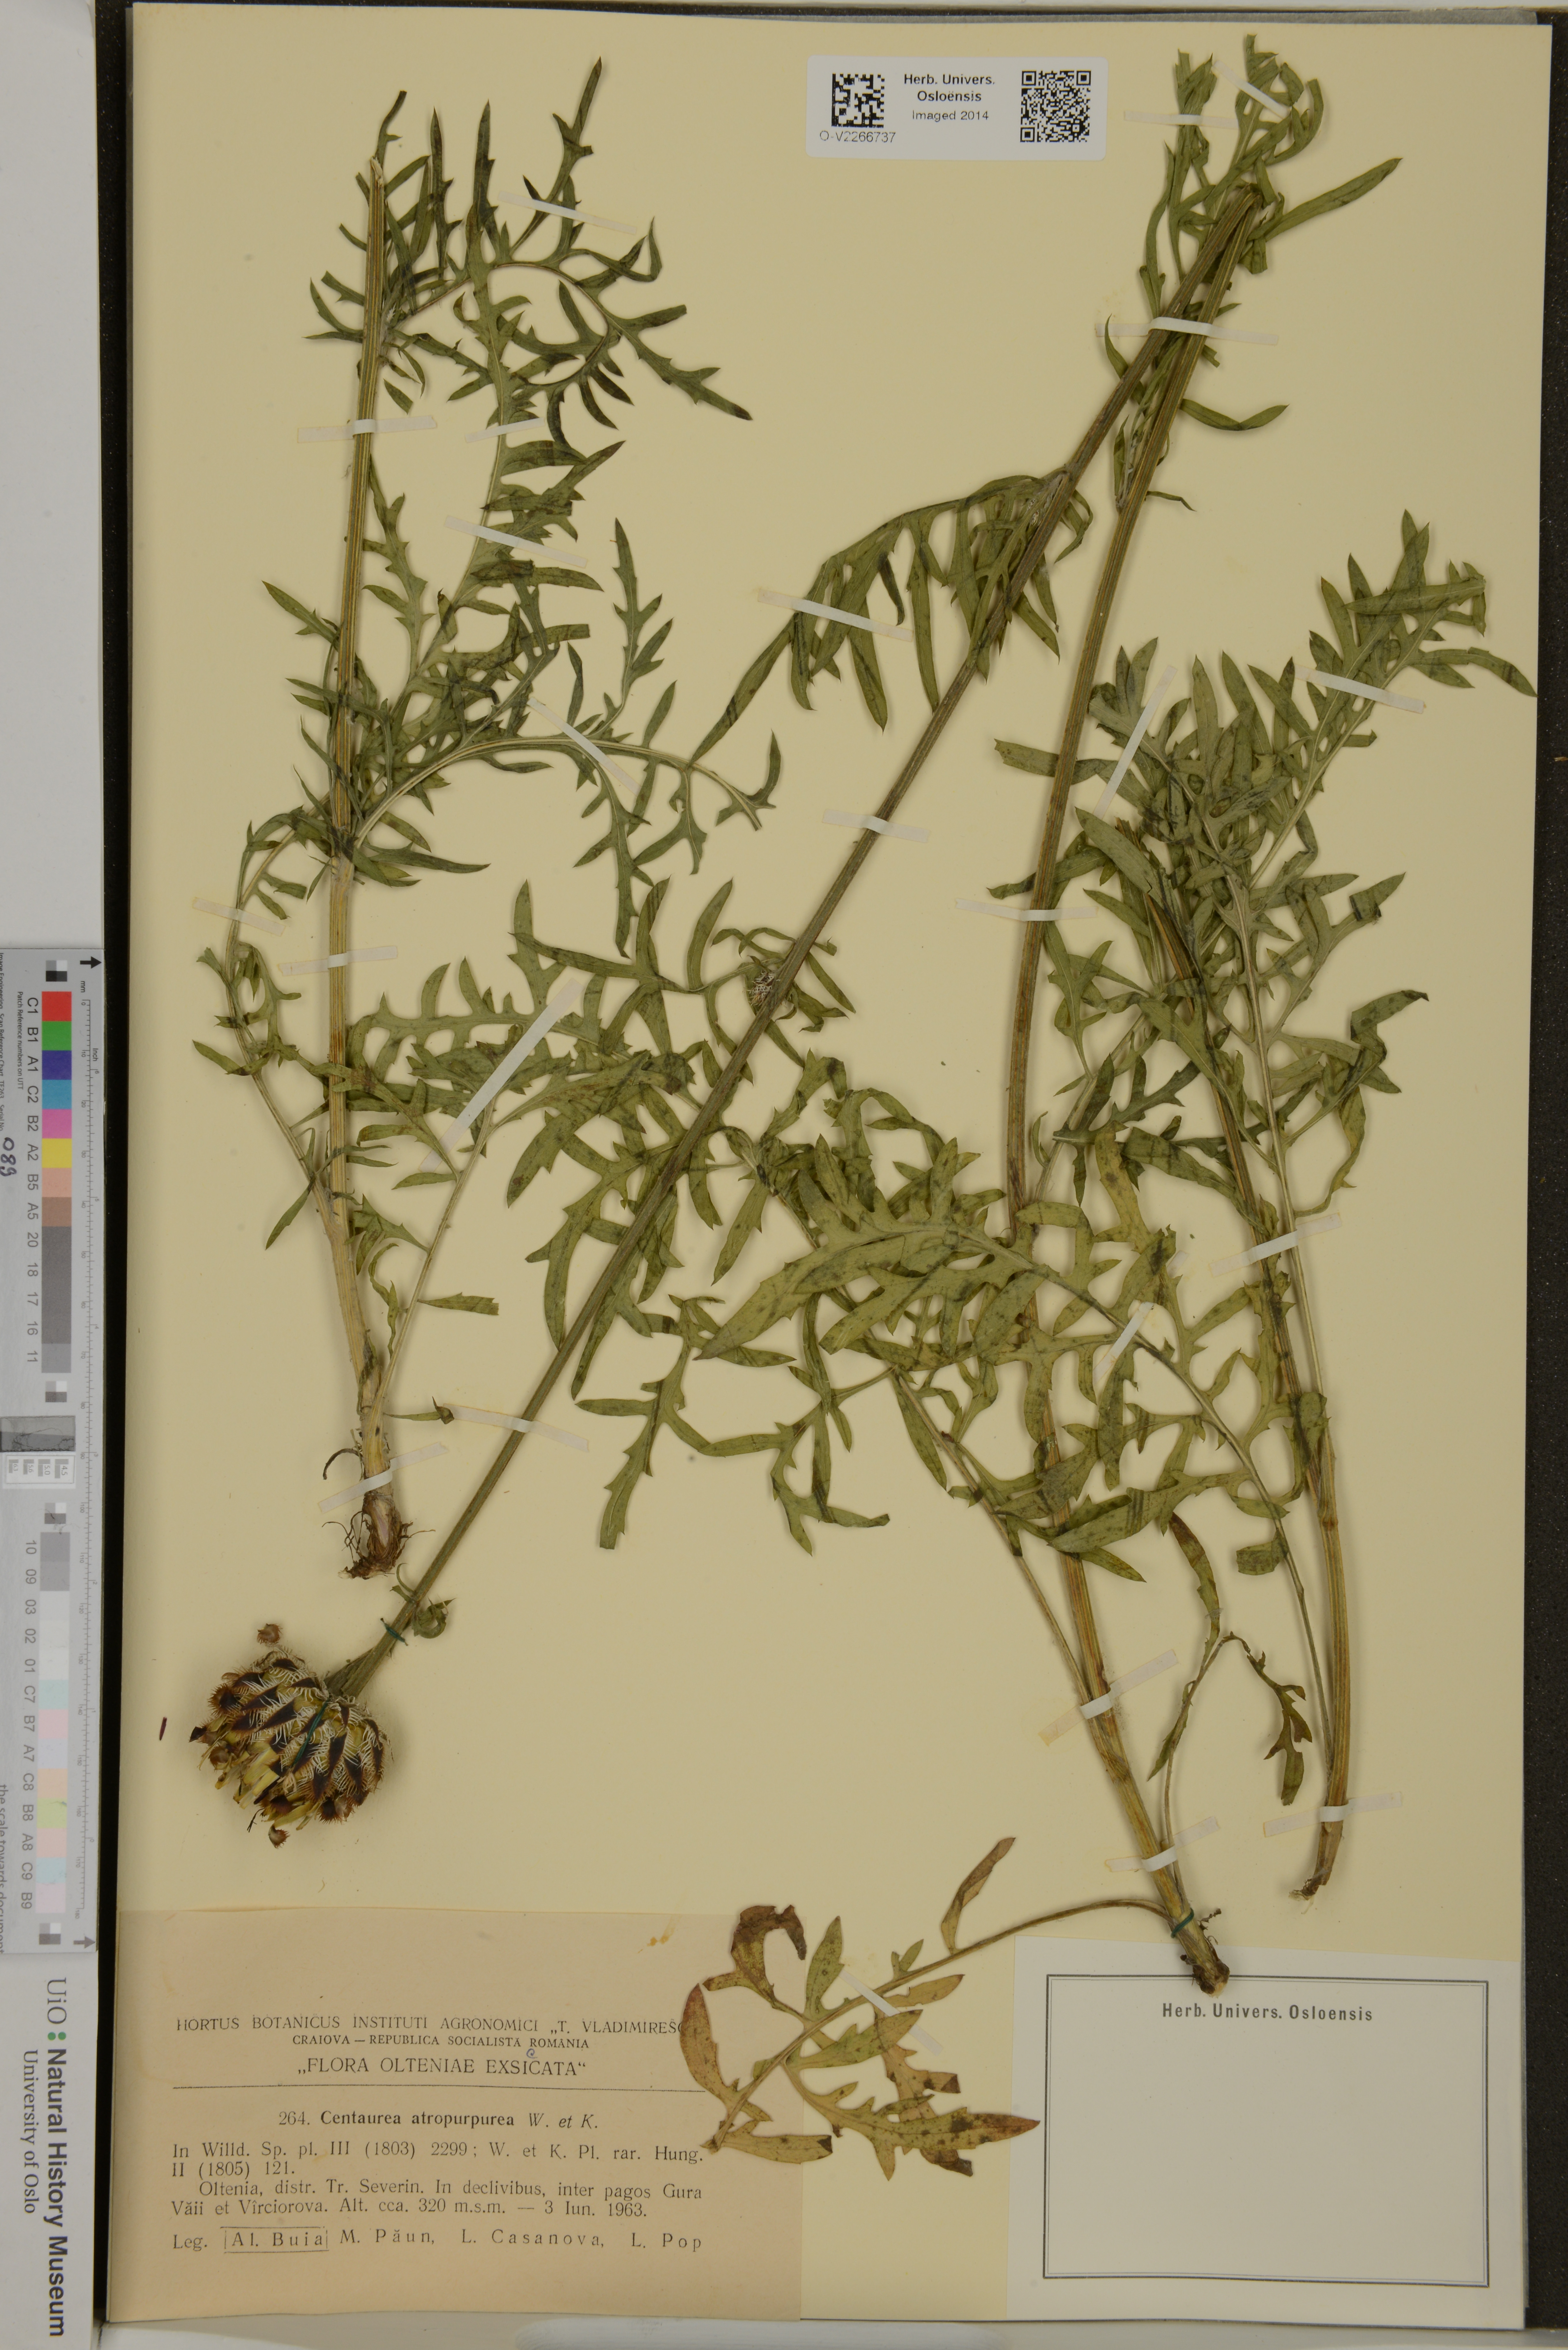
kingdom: Plantae
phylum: Tracheophyta
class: Magnoliopsida
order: Asterales
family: Asteraceae
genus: Centaurea
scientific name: Centaurea atropurpurea
